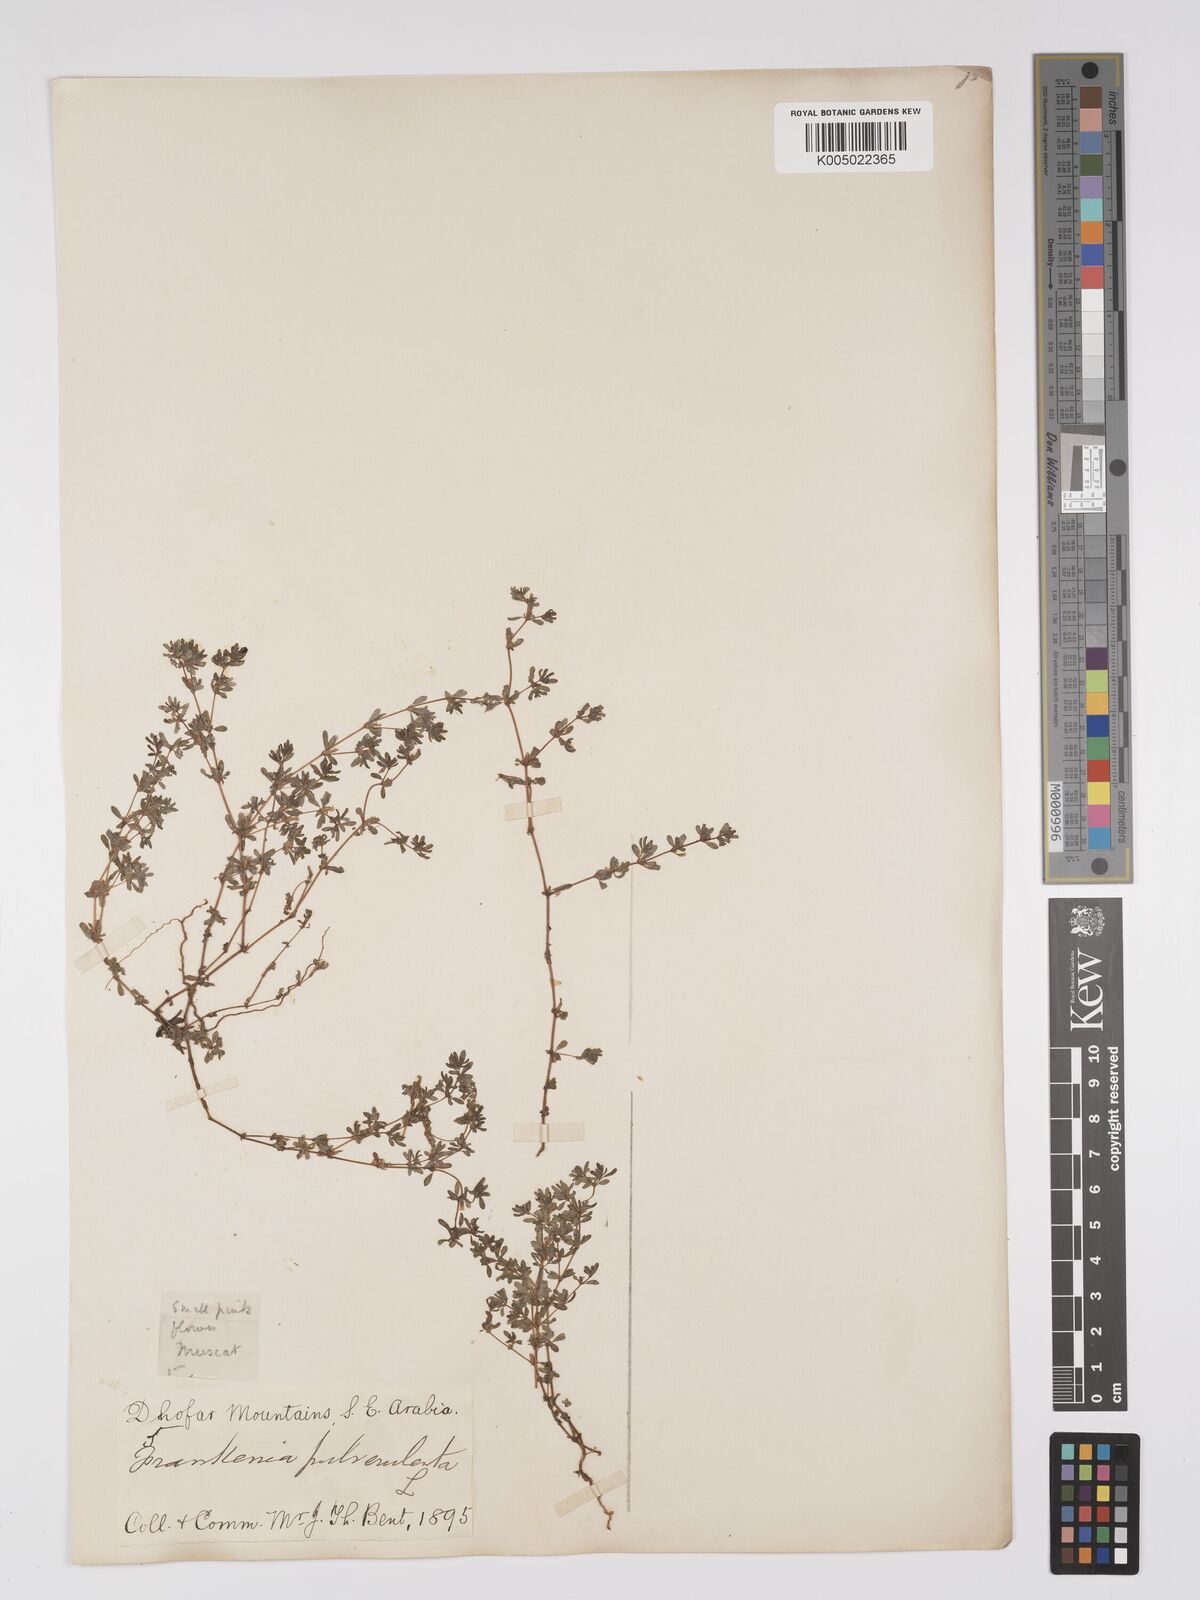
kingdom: Plantae
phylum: Tracheophyta
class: Magnoliopsida
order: Caryophyllales
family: Frankeniaceae
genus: Frankenia
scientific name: Frankenia pulverulenta
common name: European seaheath
